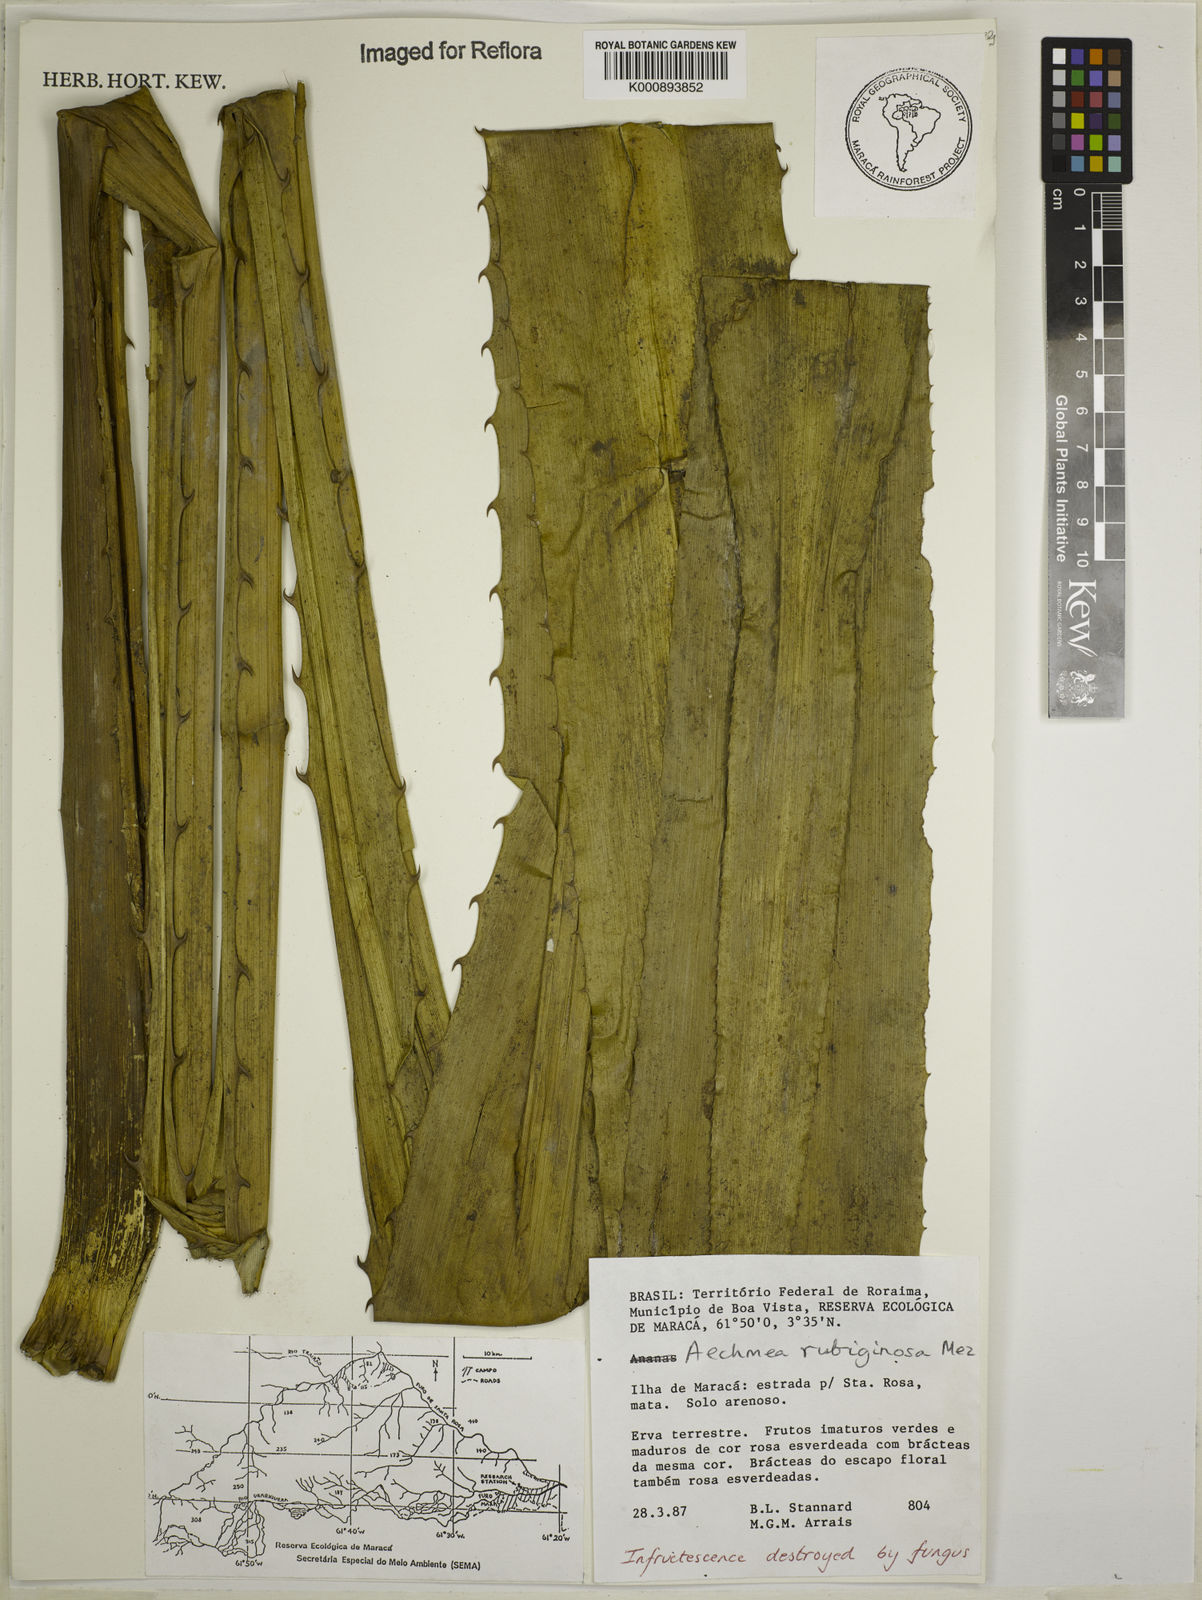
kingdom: Plantae
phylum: Tracheophyta
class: Liliopsida
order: Poales
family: Bromeliaceae
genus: Aechmea
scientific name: Aechmea rubiginosa
